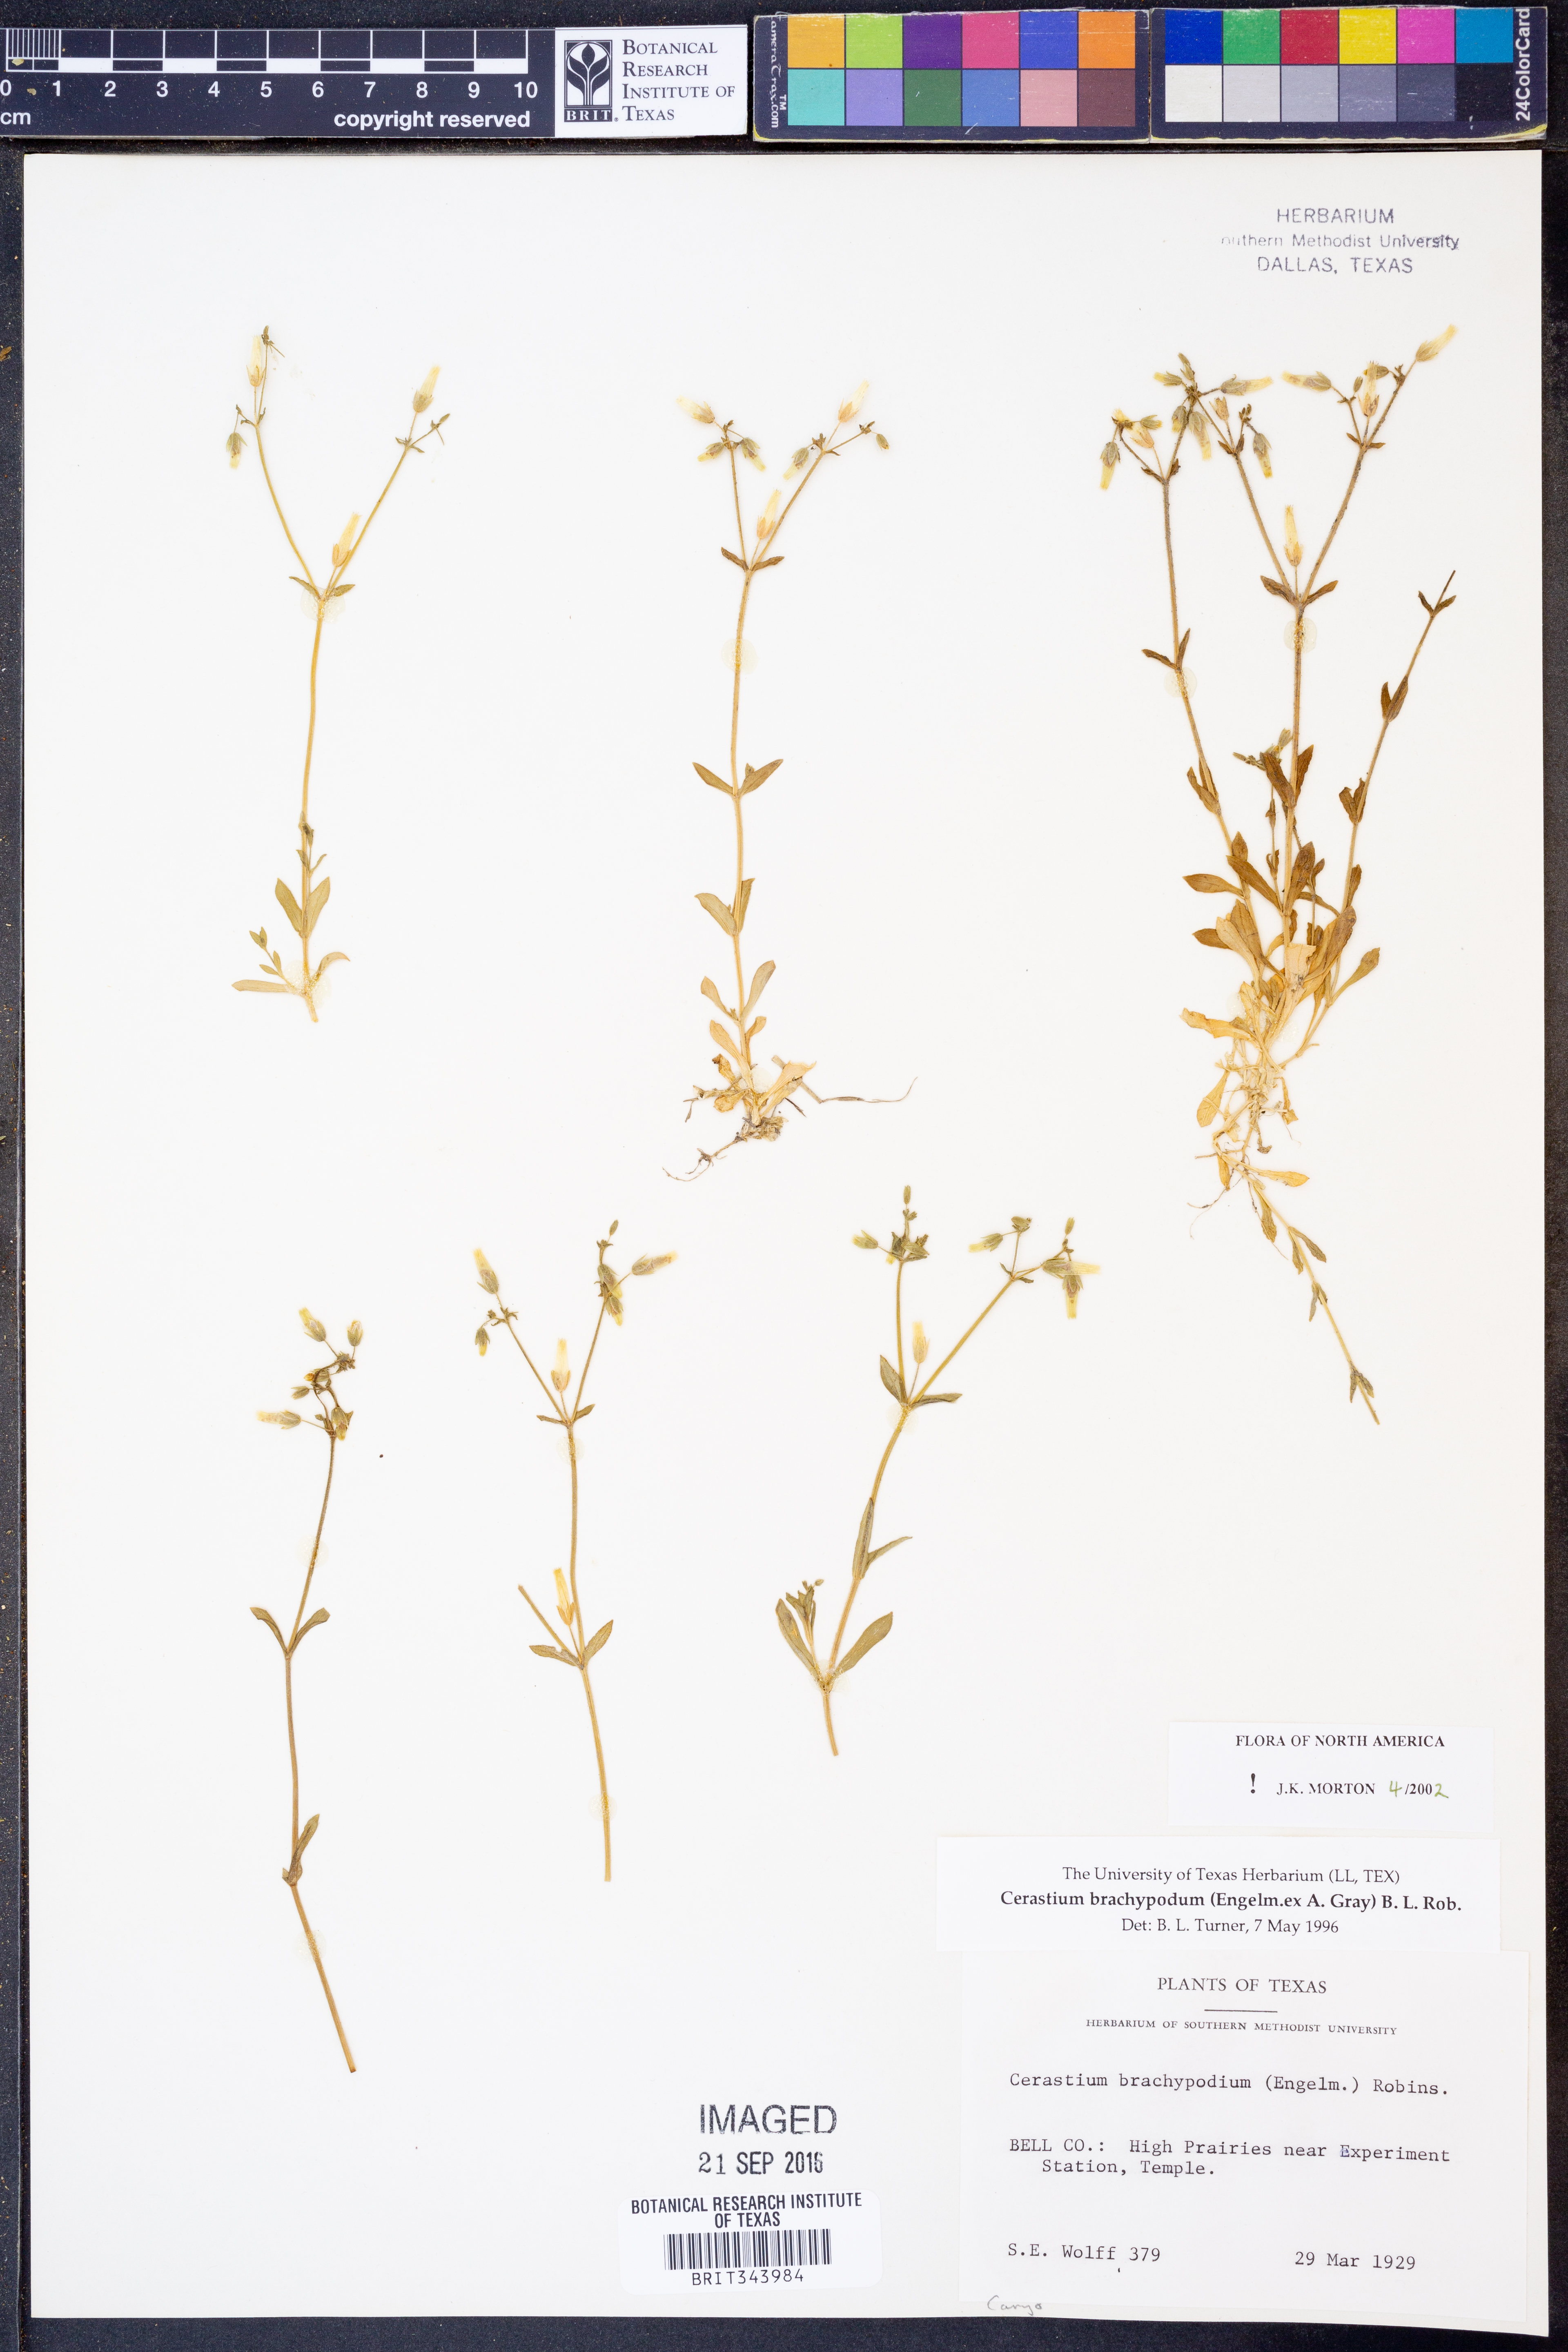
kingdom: Plantae
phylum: Tracheophyta
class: Magnoliopsida
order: Caryophyllales
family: Caryophyllaceae
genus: Cerastium
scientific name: Cerastium brachypodum
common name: Short-pedicelled nodding chickweed
